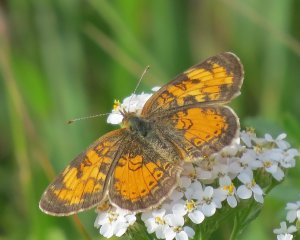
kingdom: Animalia
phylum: Arthropoda
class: Insecta
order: Lepidoptera
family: Nymphalidae
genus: Phyciodes
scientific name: Phyciodes tharos
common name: Northern Crescent
